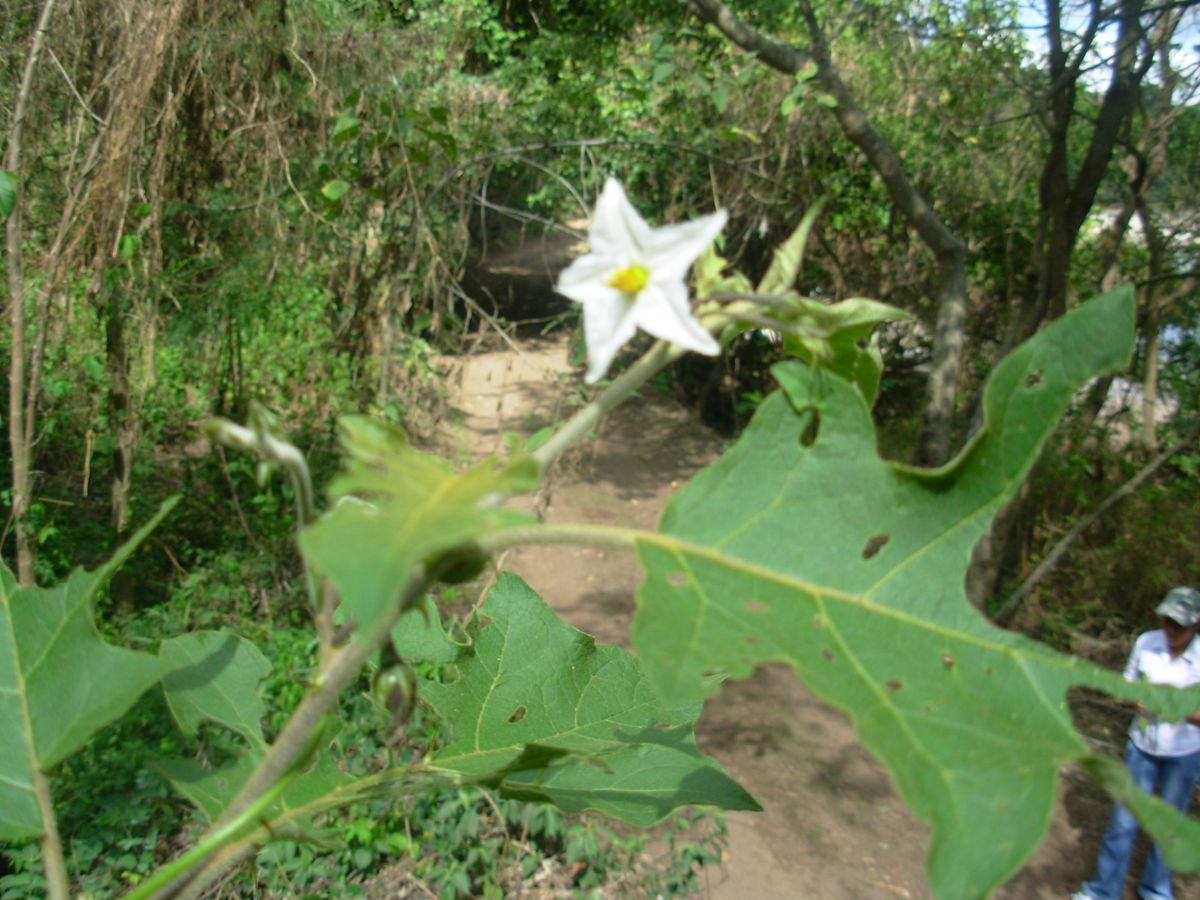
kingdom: Plantae
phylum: Tracheophyta
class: Magnoliopsida
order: Solanales
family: Solanaceae
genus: Solanum
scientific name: Solanum torvum
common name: Turkey berry
